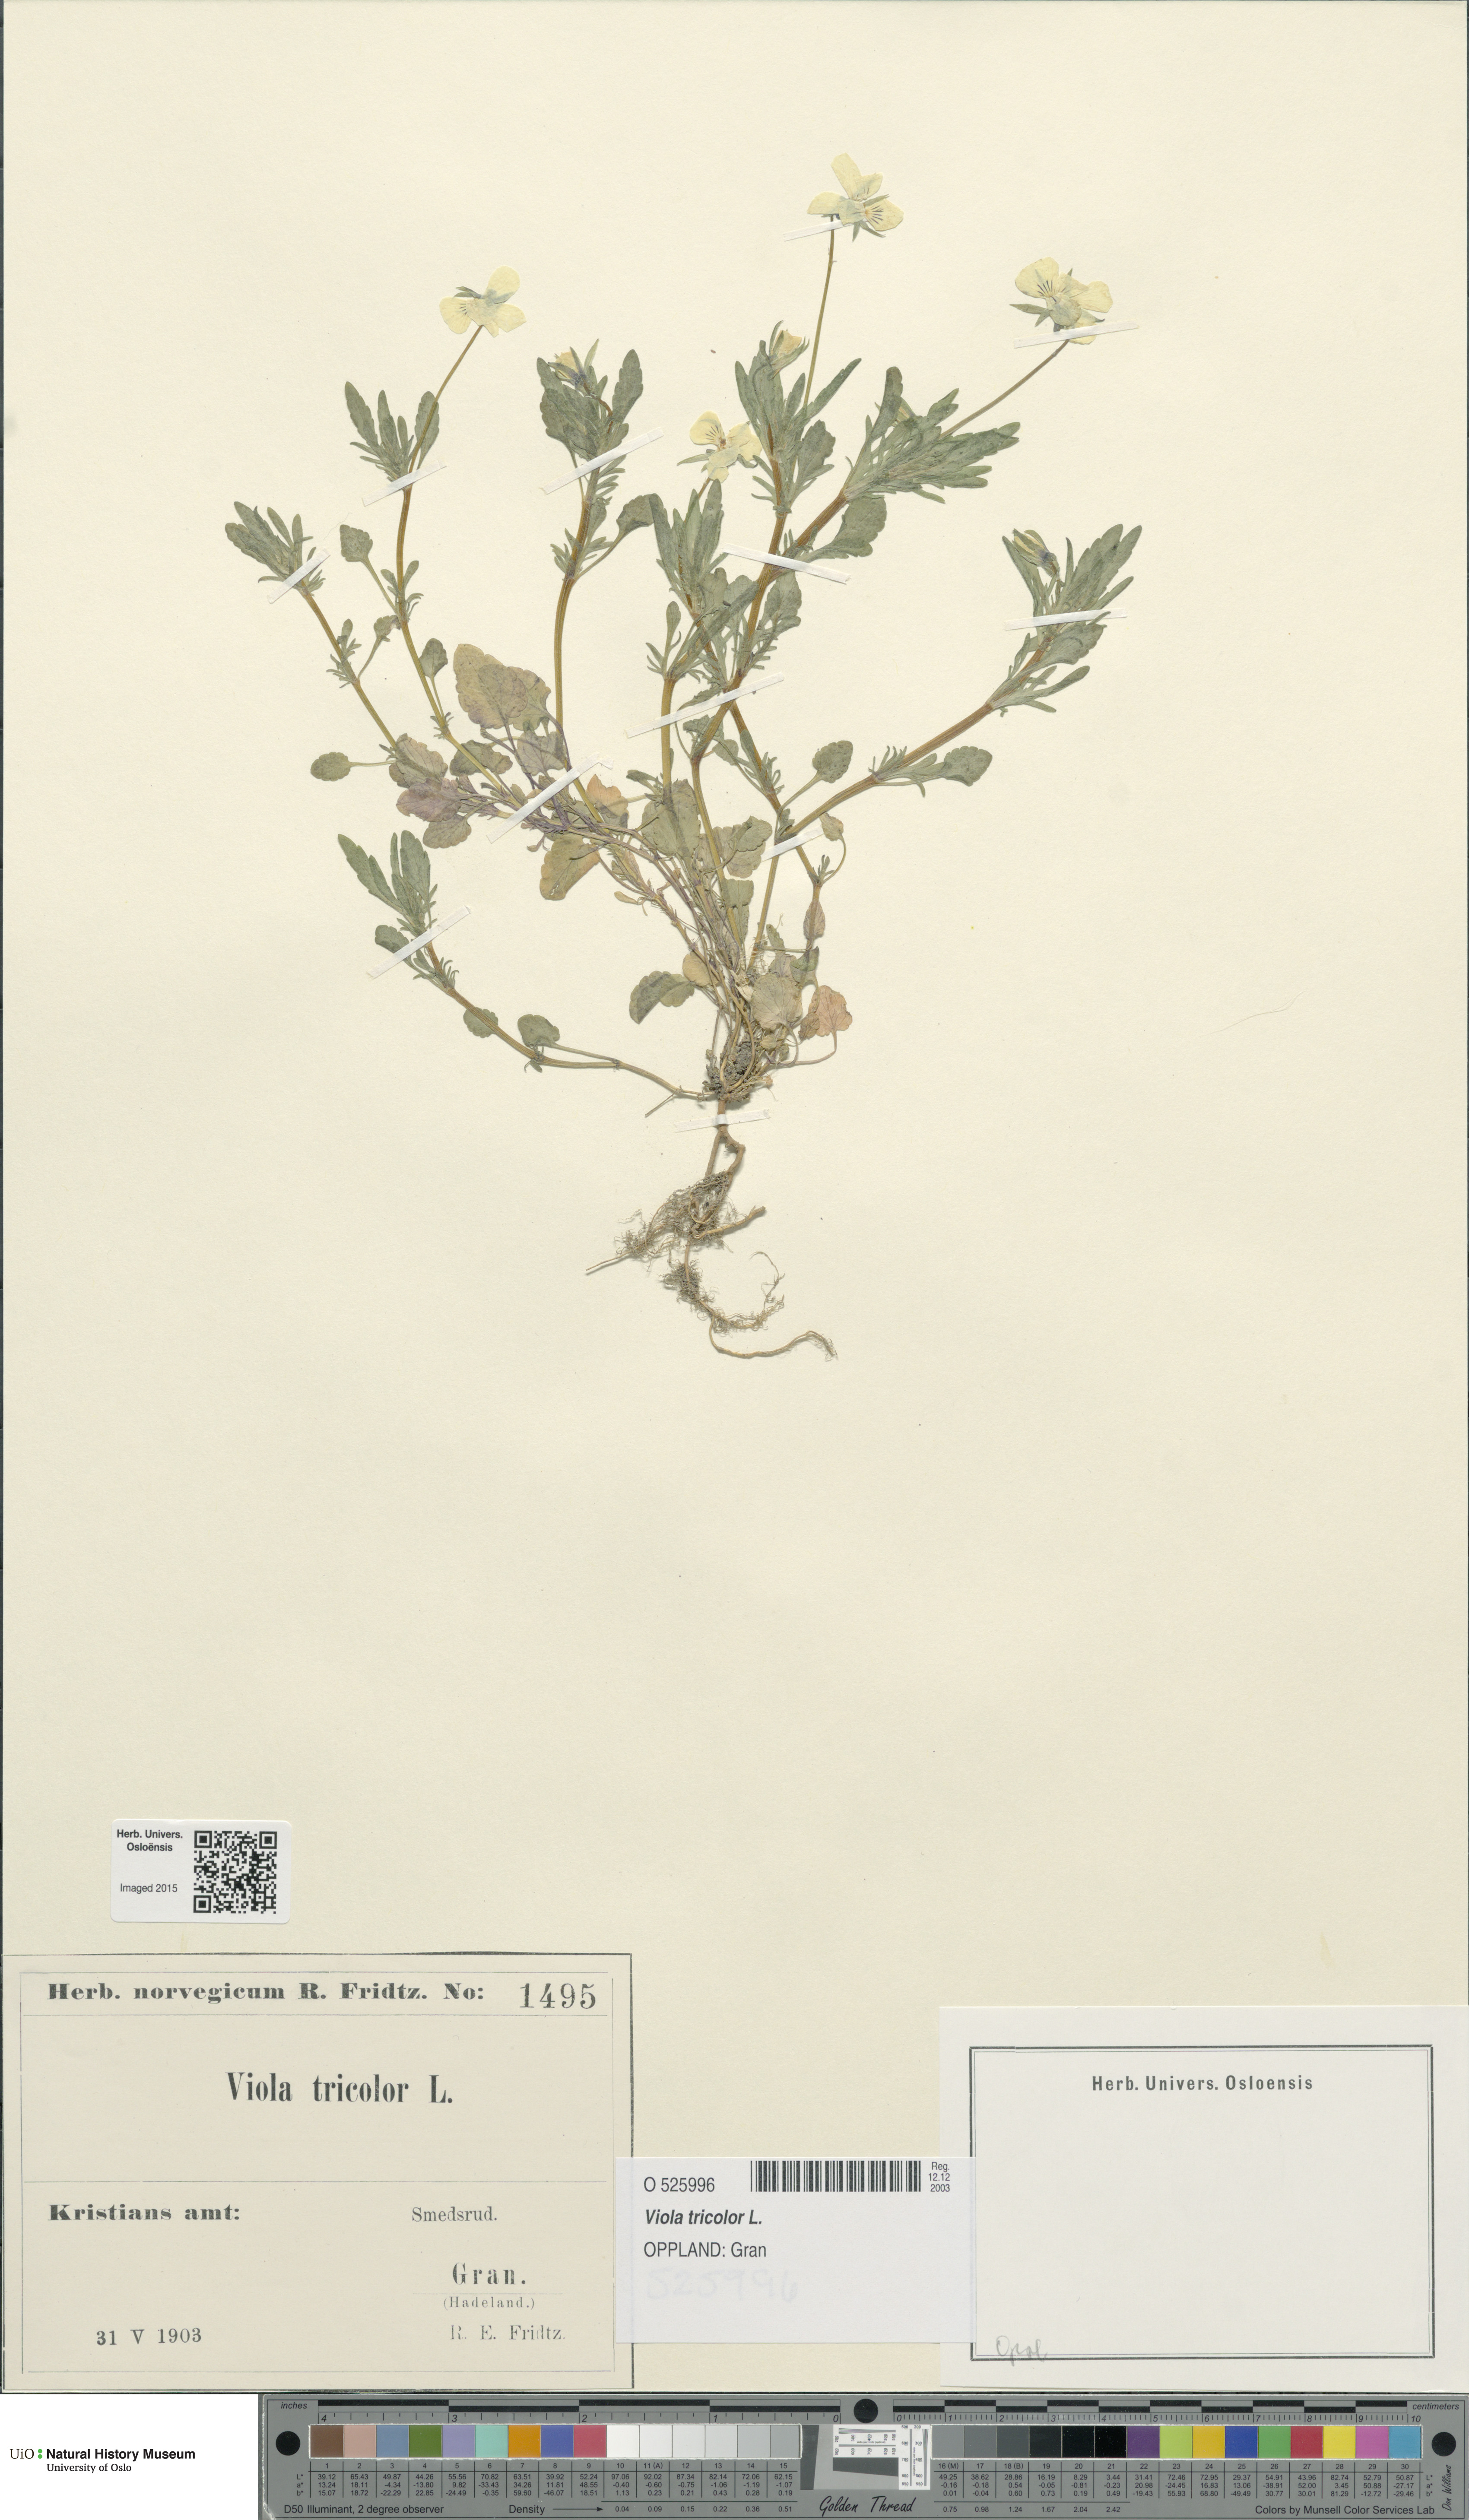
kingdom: Plantae
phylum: Tracheophyta
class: Magnoliopsida
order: Malpighiales
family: Violaceae
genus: Viola
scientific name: Viola tricolor
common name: Pansy
